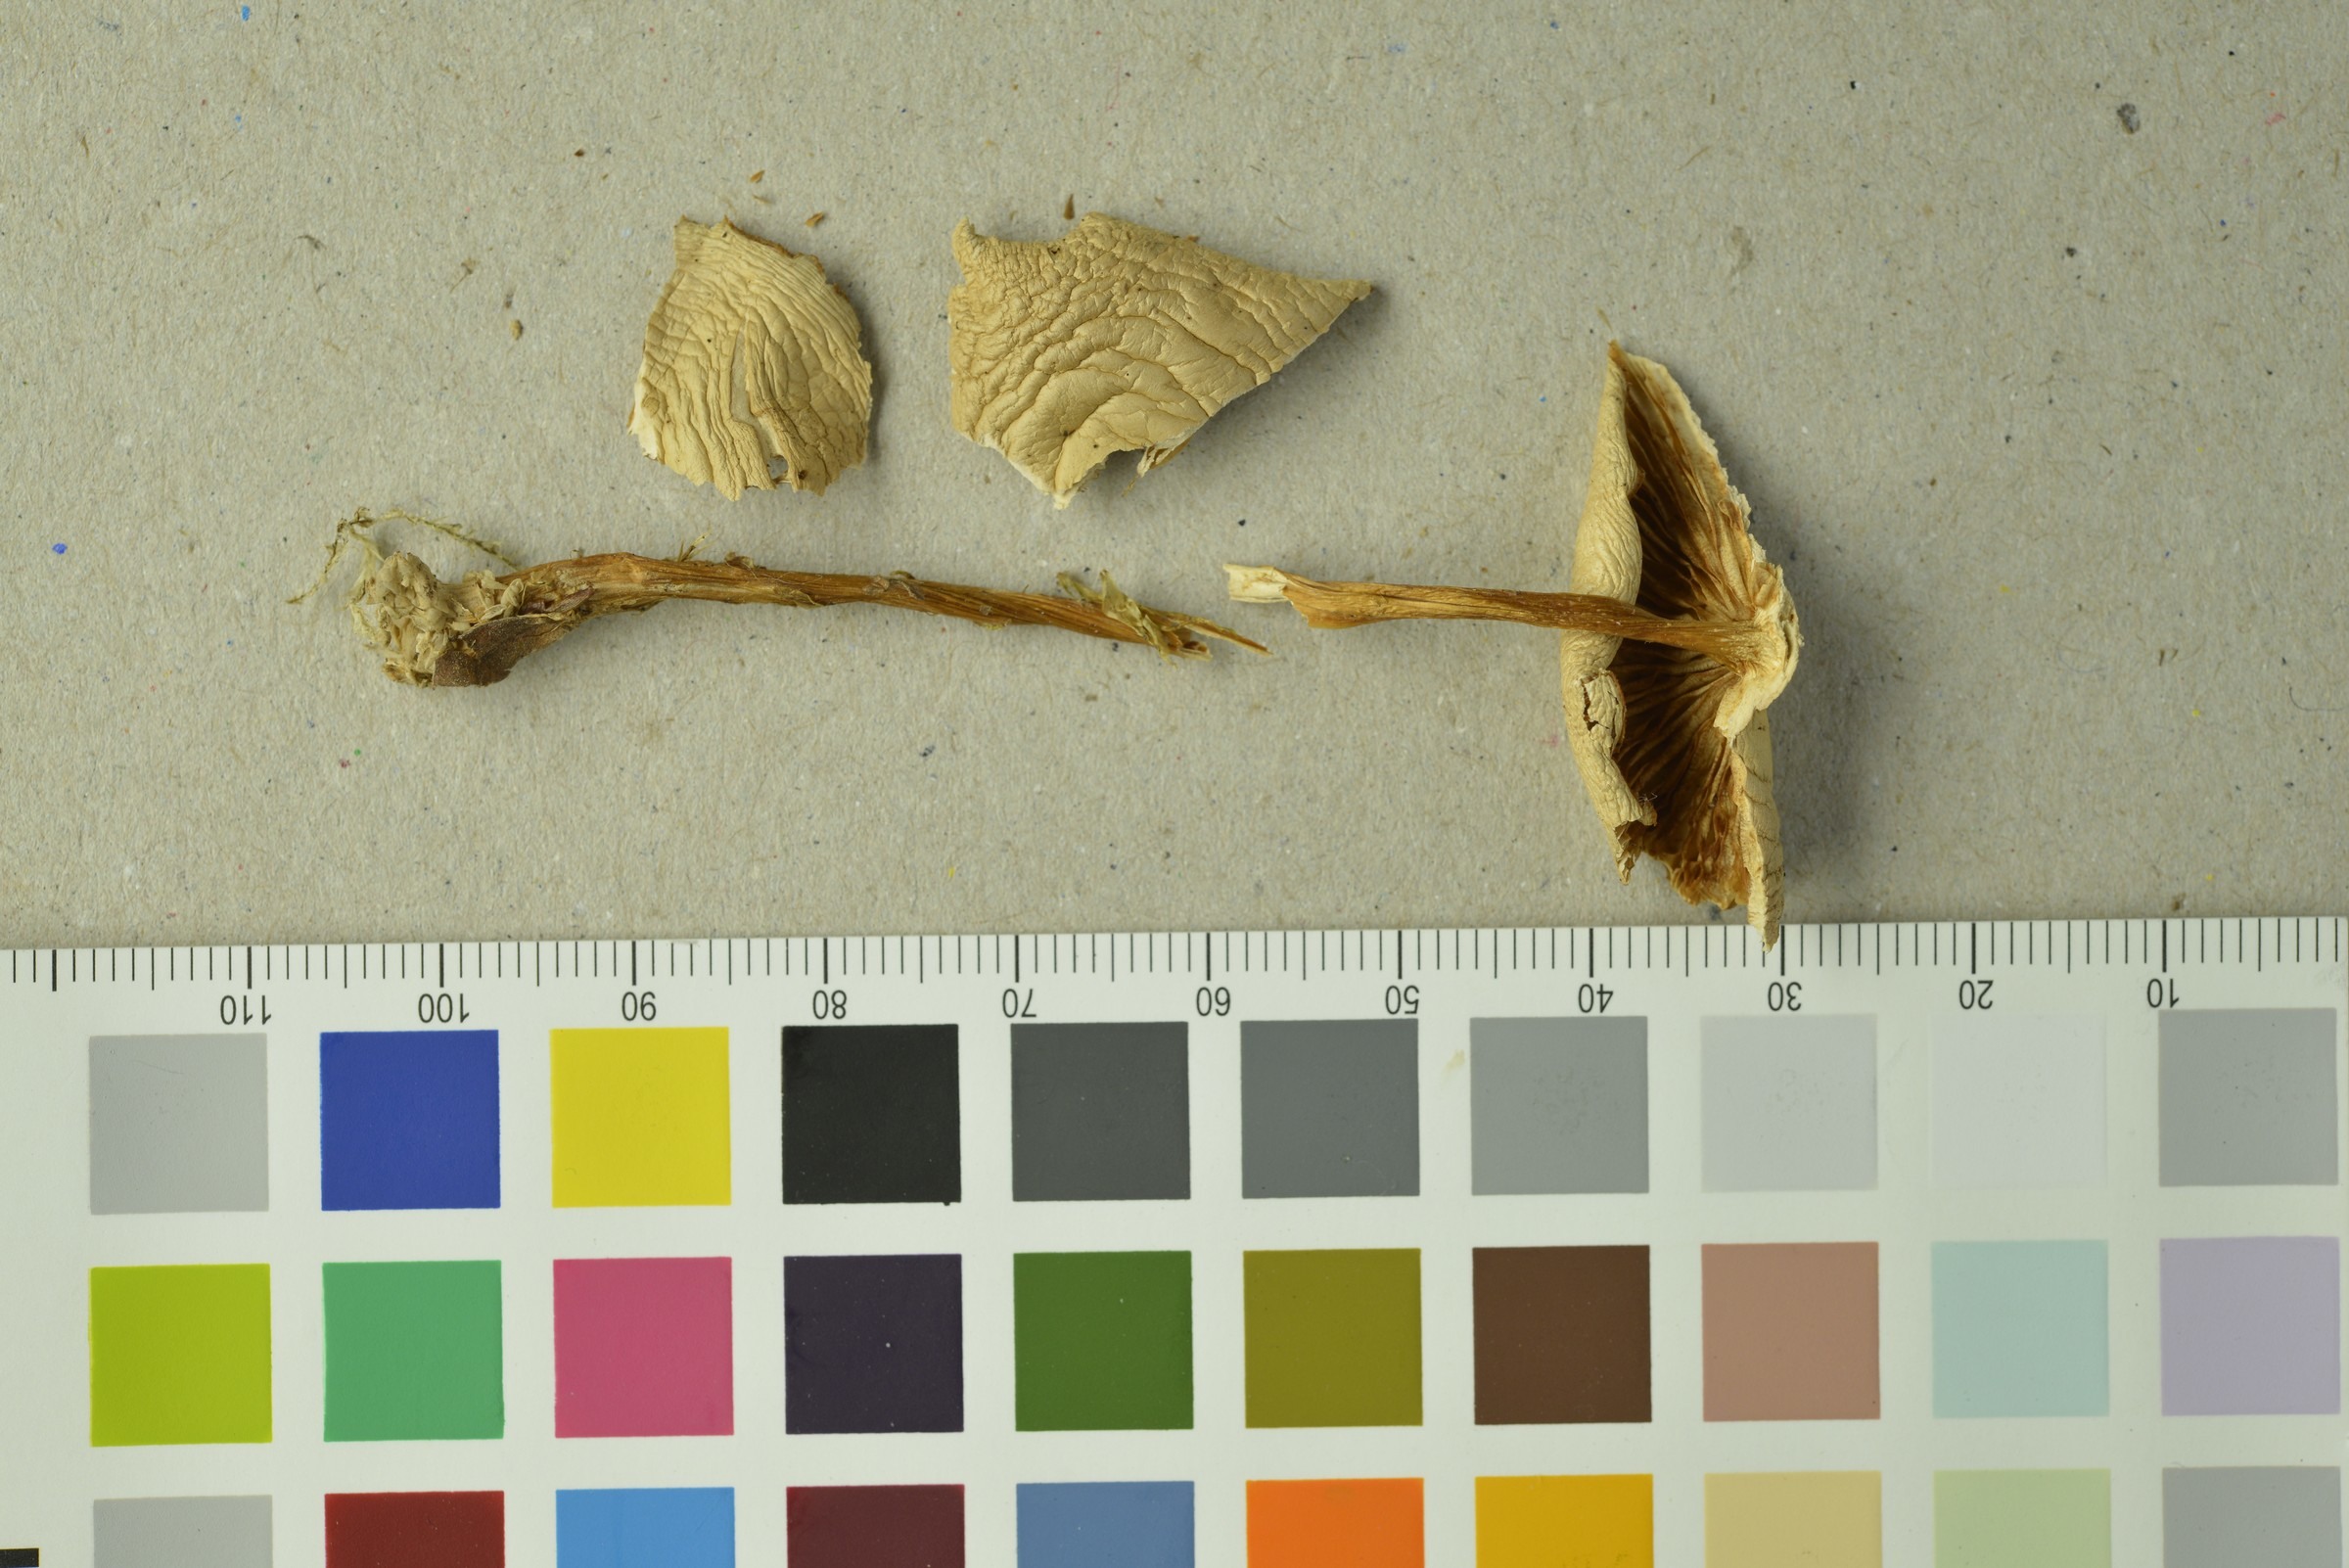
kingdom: Fungi
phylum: Basidiomycota
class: Agaricomycetes
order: Agaricales
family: Omphalotaceae
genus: Gymnopus
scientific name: Gymnopus dryophilus
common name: Penny top
